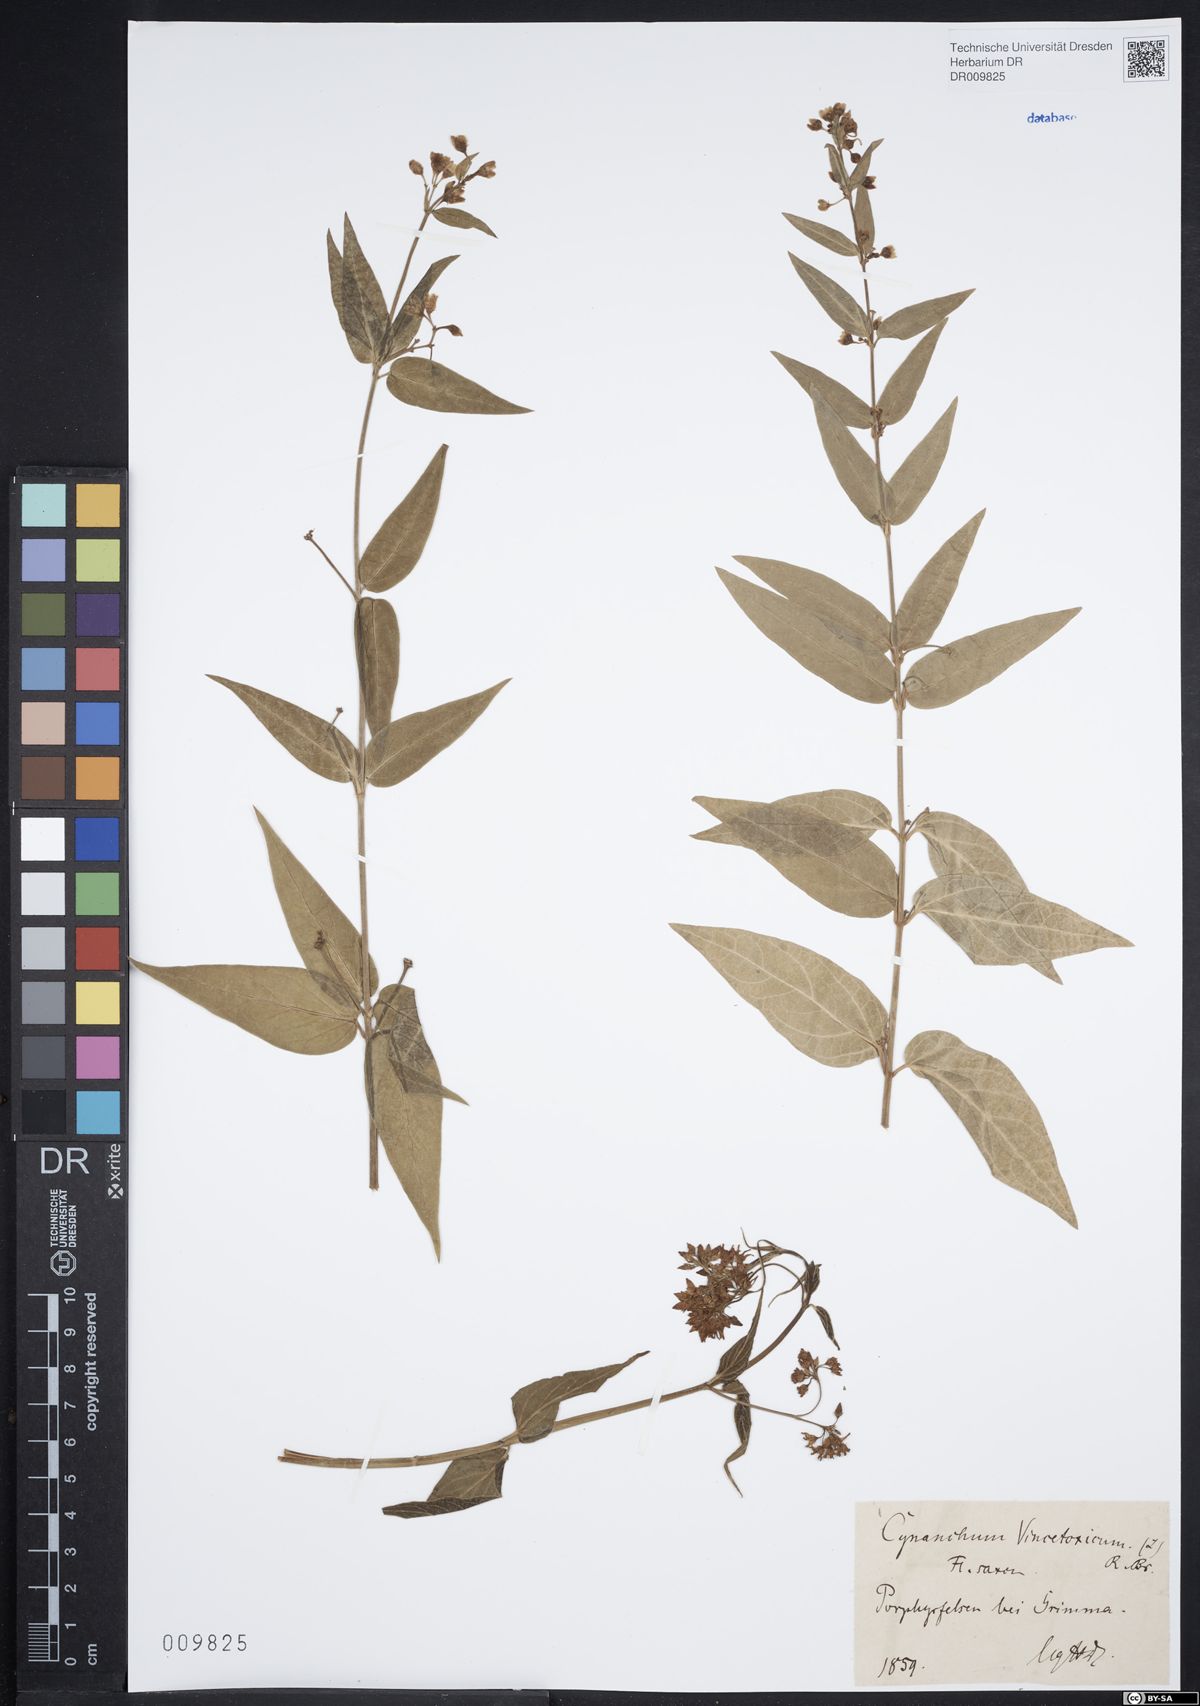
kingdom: Plantae
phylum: Tracheophyta
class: Magnoliopsida
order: Gentianales
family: Apocynaceae
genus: Vincetoxicum
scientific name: Vincetoxicum hirundinaria
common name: White swallowwort
